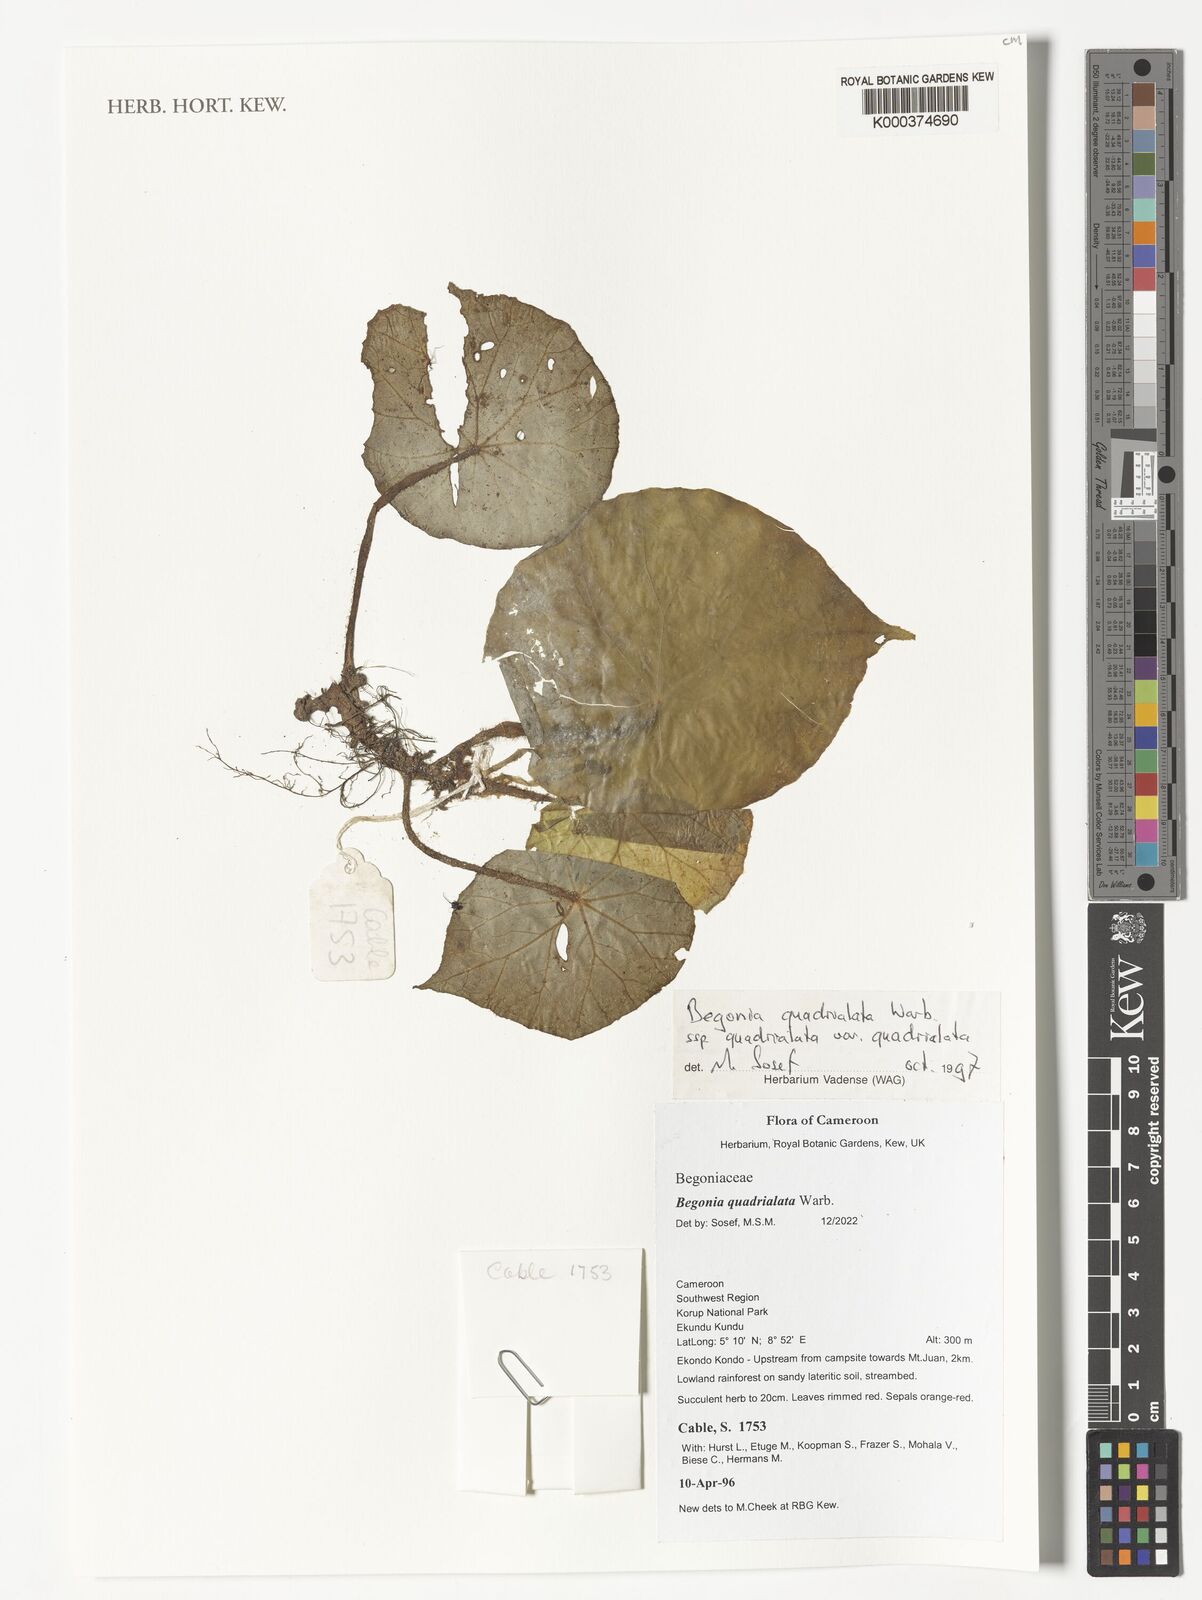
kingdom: Plantae
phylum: Tracheophyta
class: Magnoliopsida
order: Cucurbitales
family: Begoniaceae
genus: Begonia
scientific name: Begonia quadrialata
